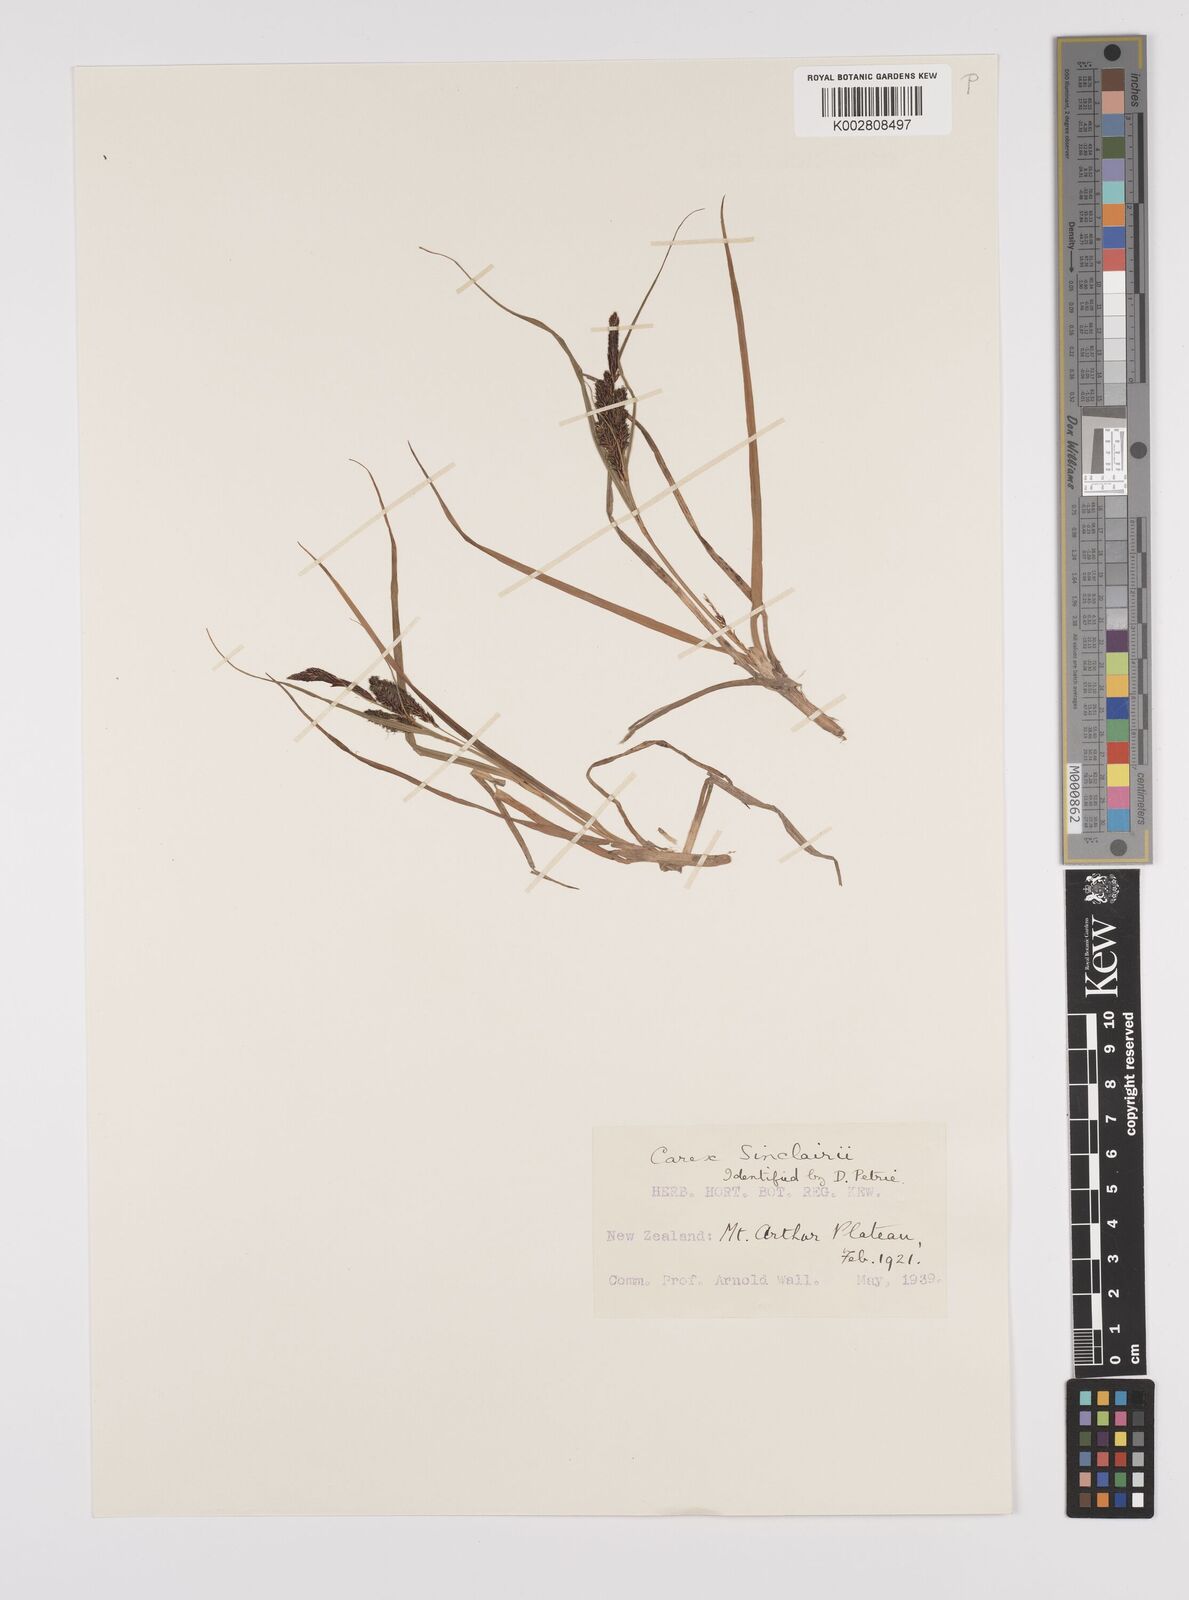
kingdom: Plantae
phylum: Tracheophyta
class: Liliopsida
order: Poales
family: Cyperaceae
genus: Carex
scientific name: Carex sinclairii
